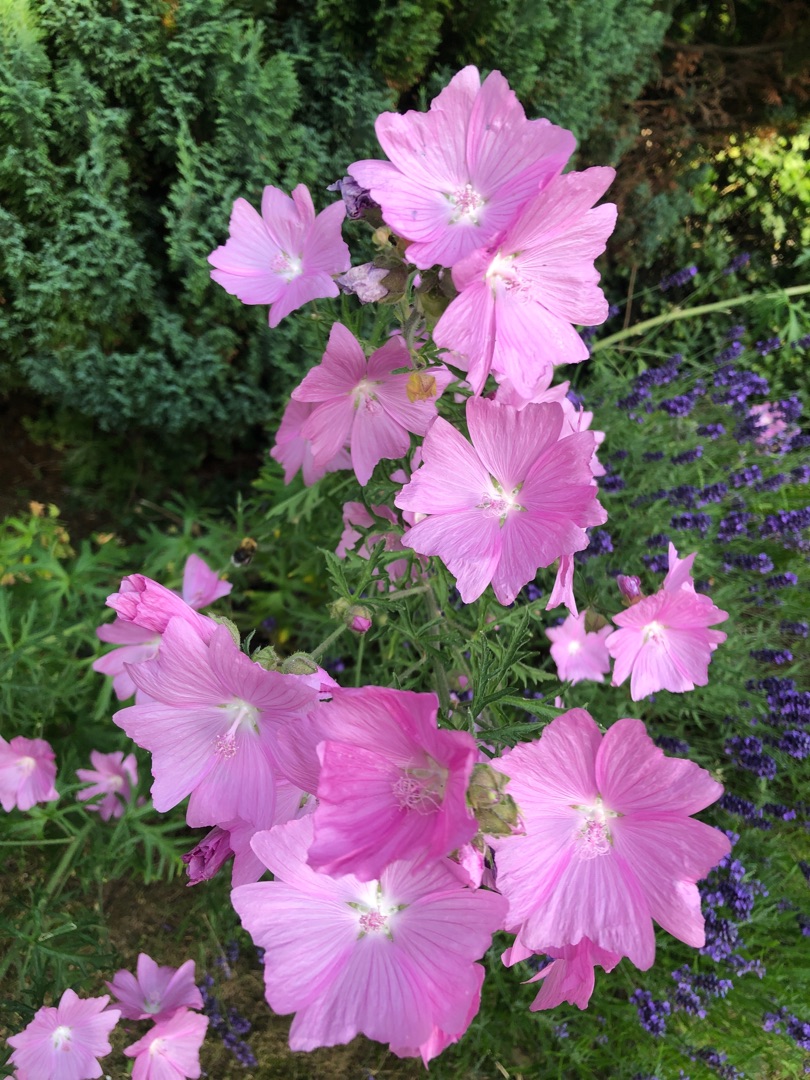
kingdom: Plantae
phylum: Tracheophyta
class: Magnoliopsida
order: Malvales
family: Malvaceae
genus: Malva
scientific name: Malva moschata
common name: Moskus-katost
